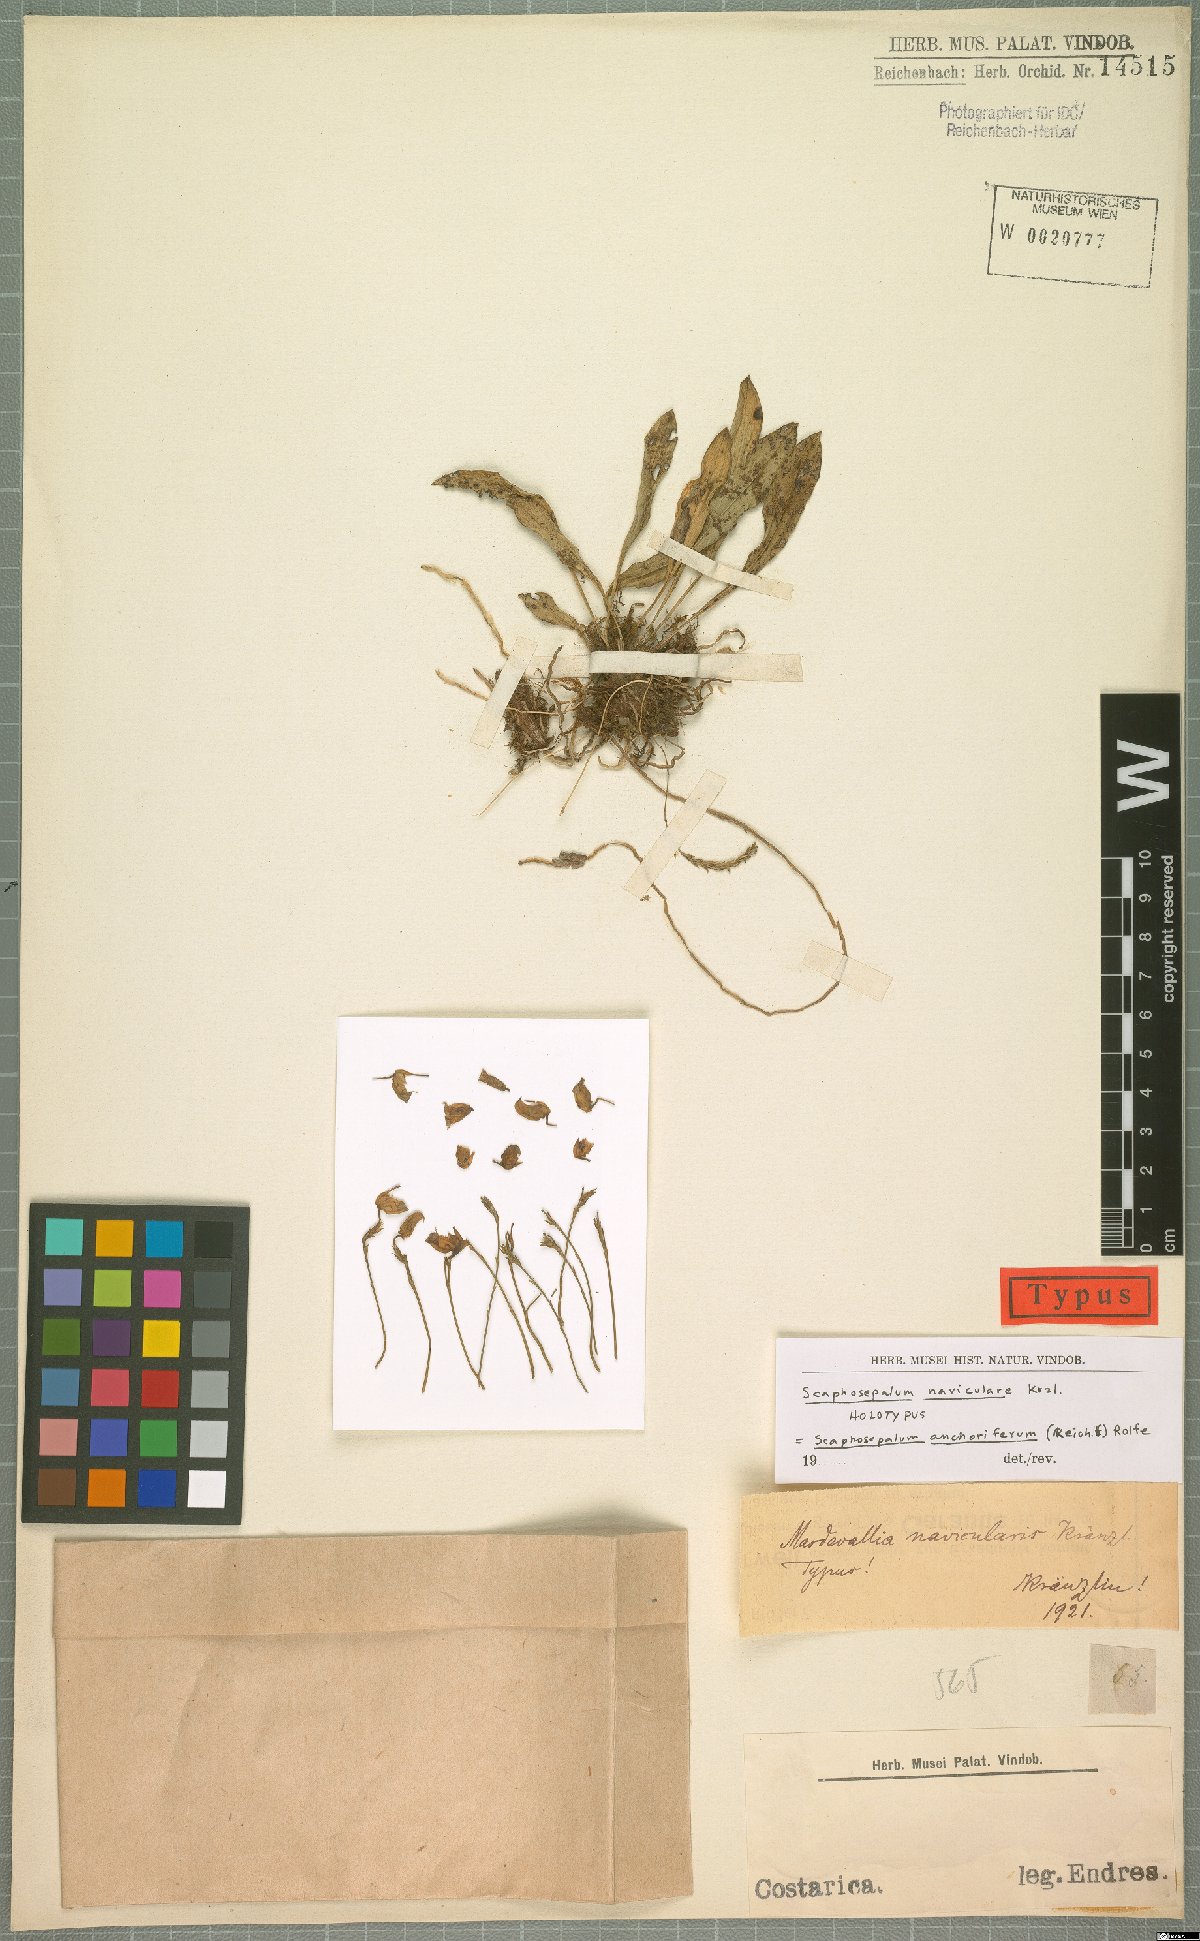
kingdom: Plantae
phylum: Tracheophyta
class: Liliopsida
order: Asparagales
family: Orchidaceae
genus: Scaphosepalum
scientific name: Scaphosepalum anchoriferum
